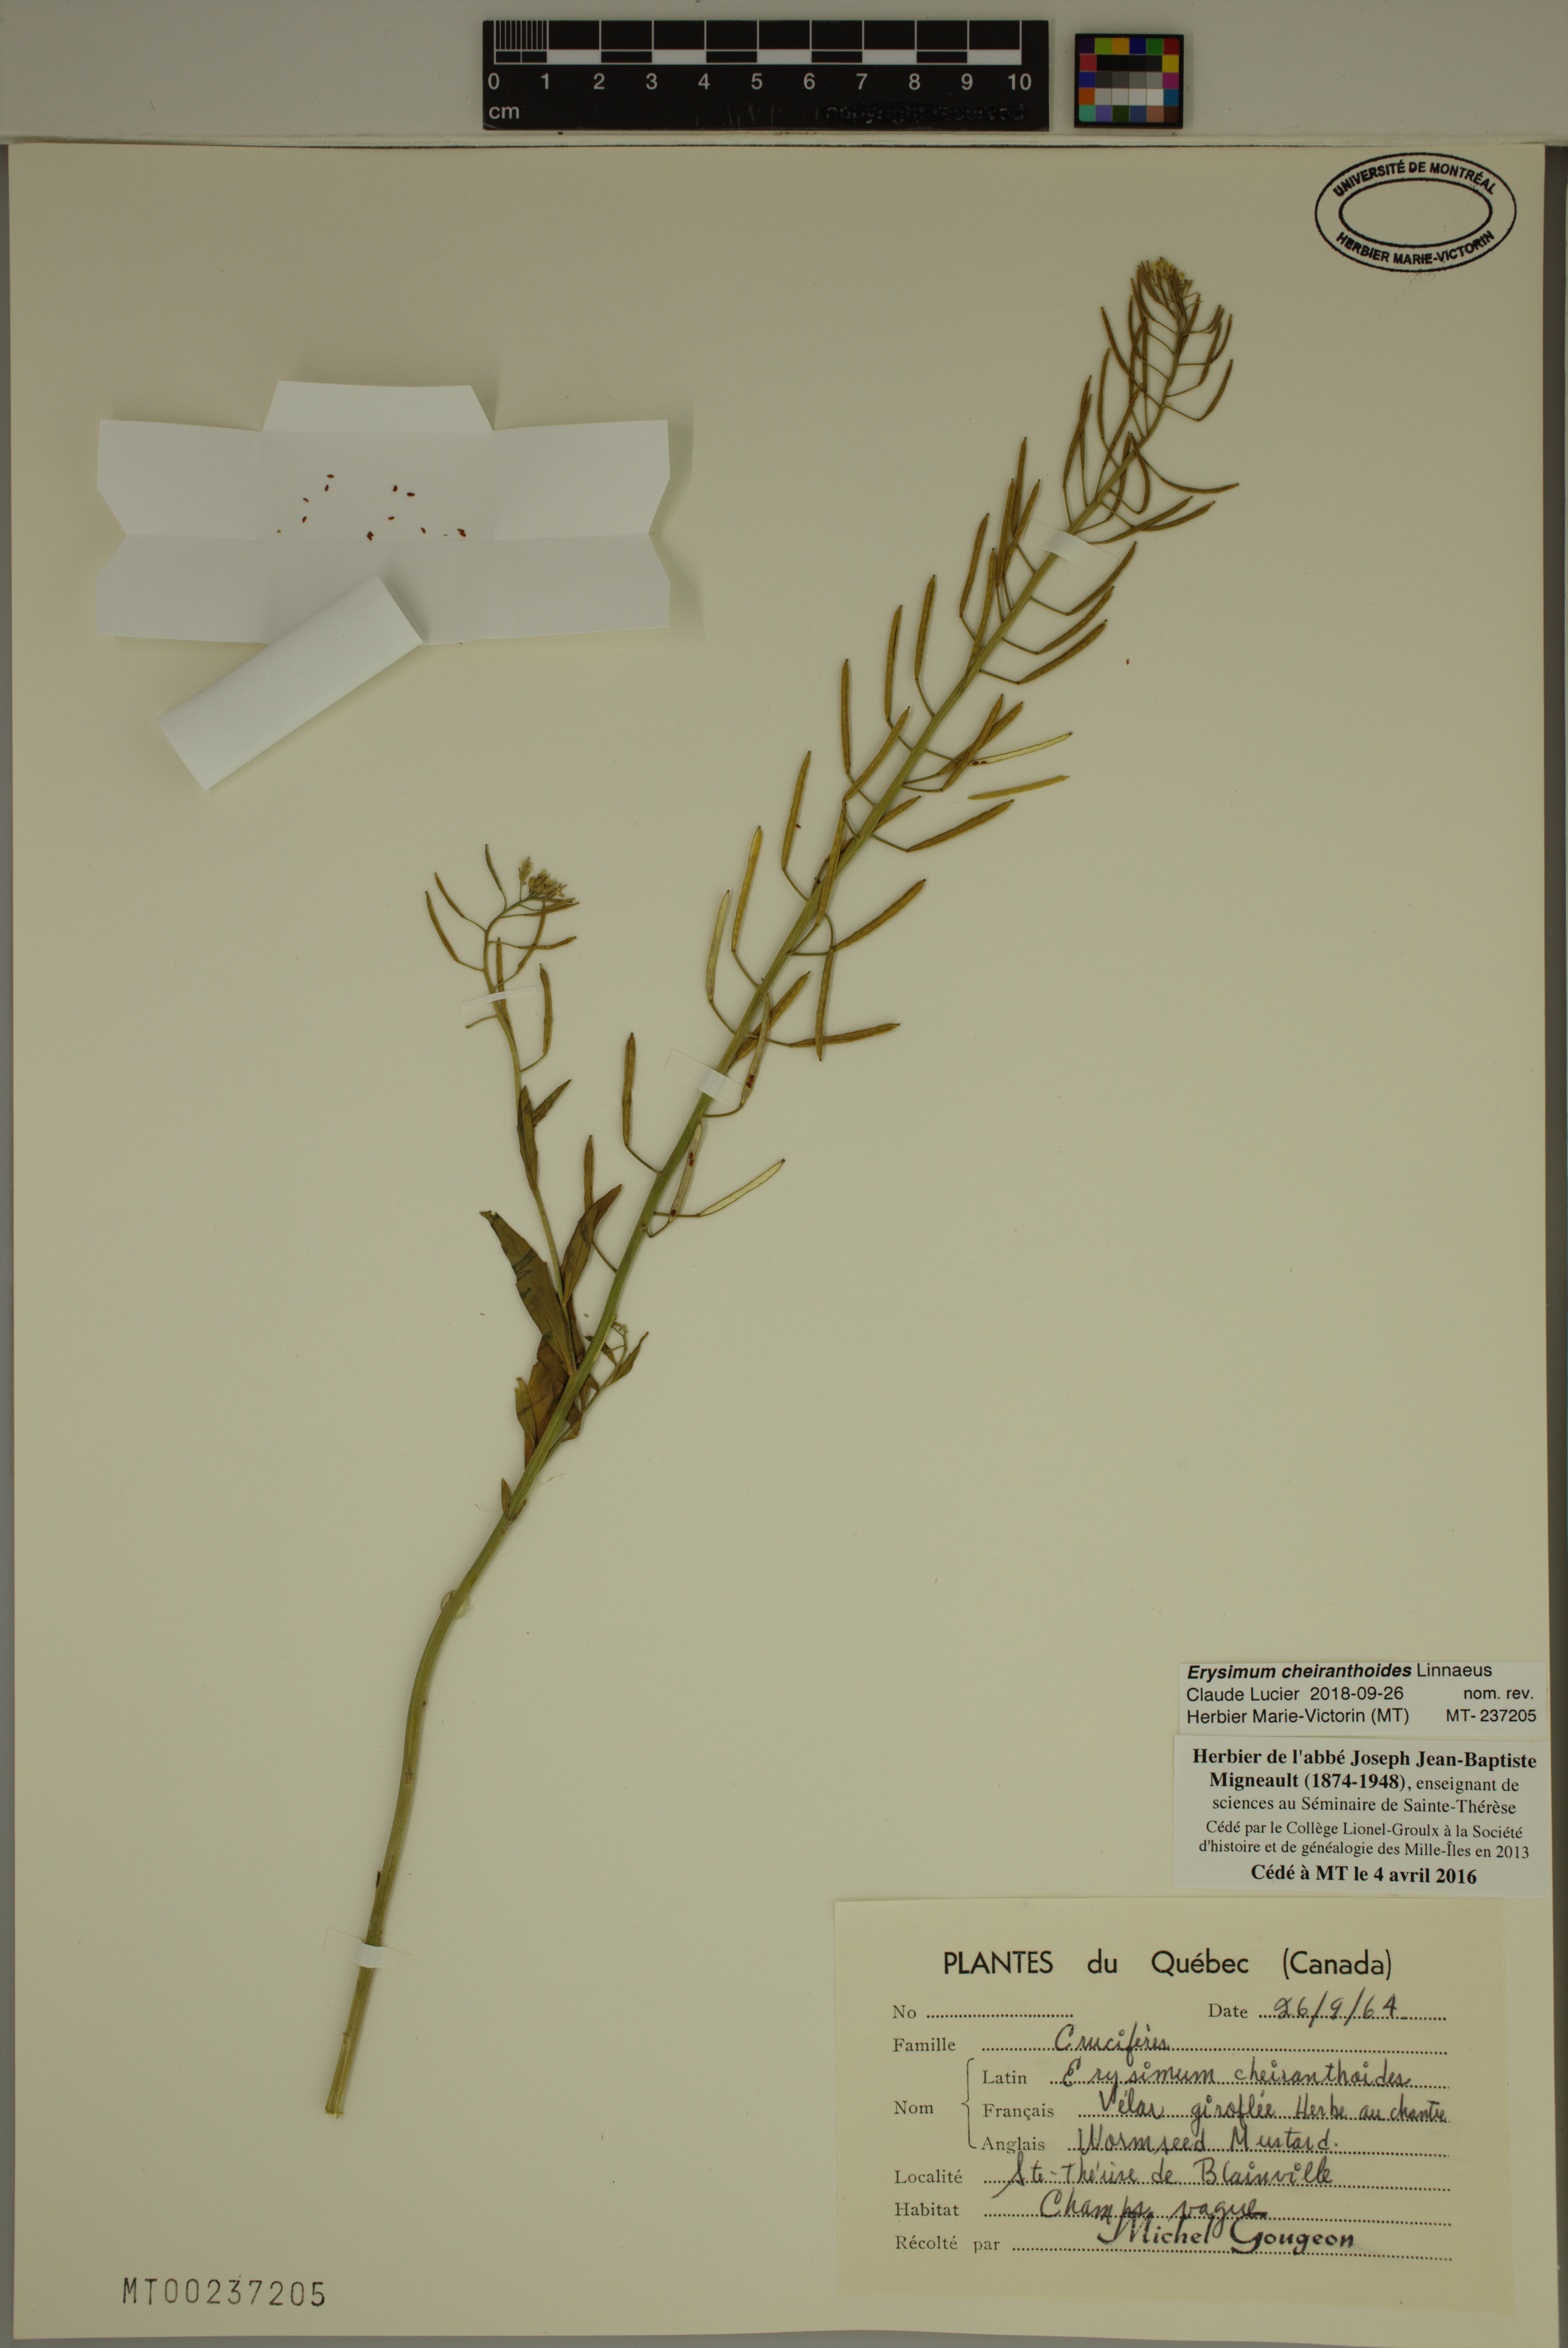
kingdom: Plantae
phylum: Tracheophyta
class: Magnoliopsida
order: Brassicales
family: Brassicaceae
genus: Erysimum
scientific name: Erysimum cheiranthoides
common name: Treacle mustard
